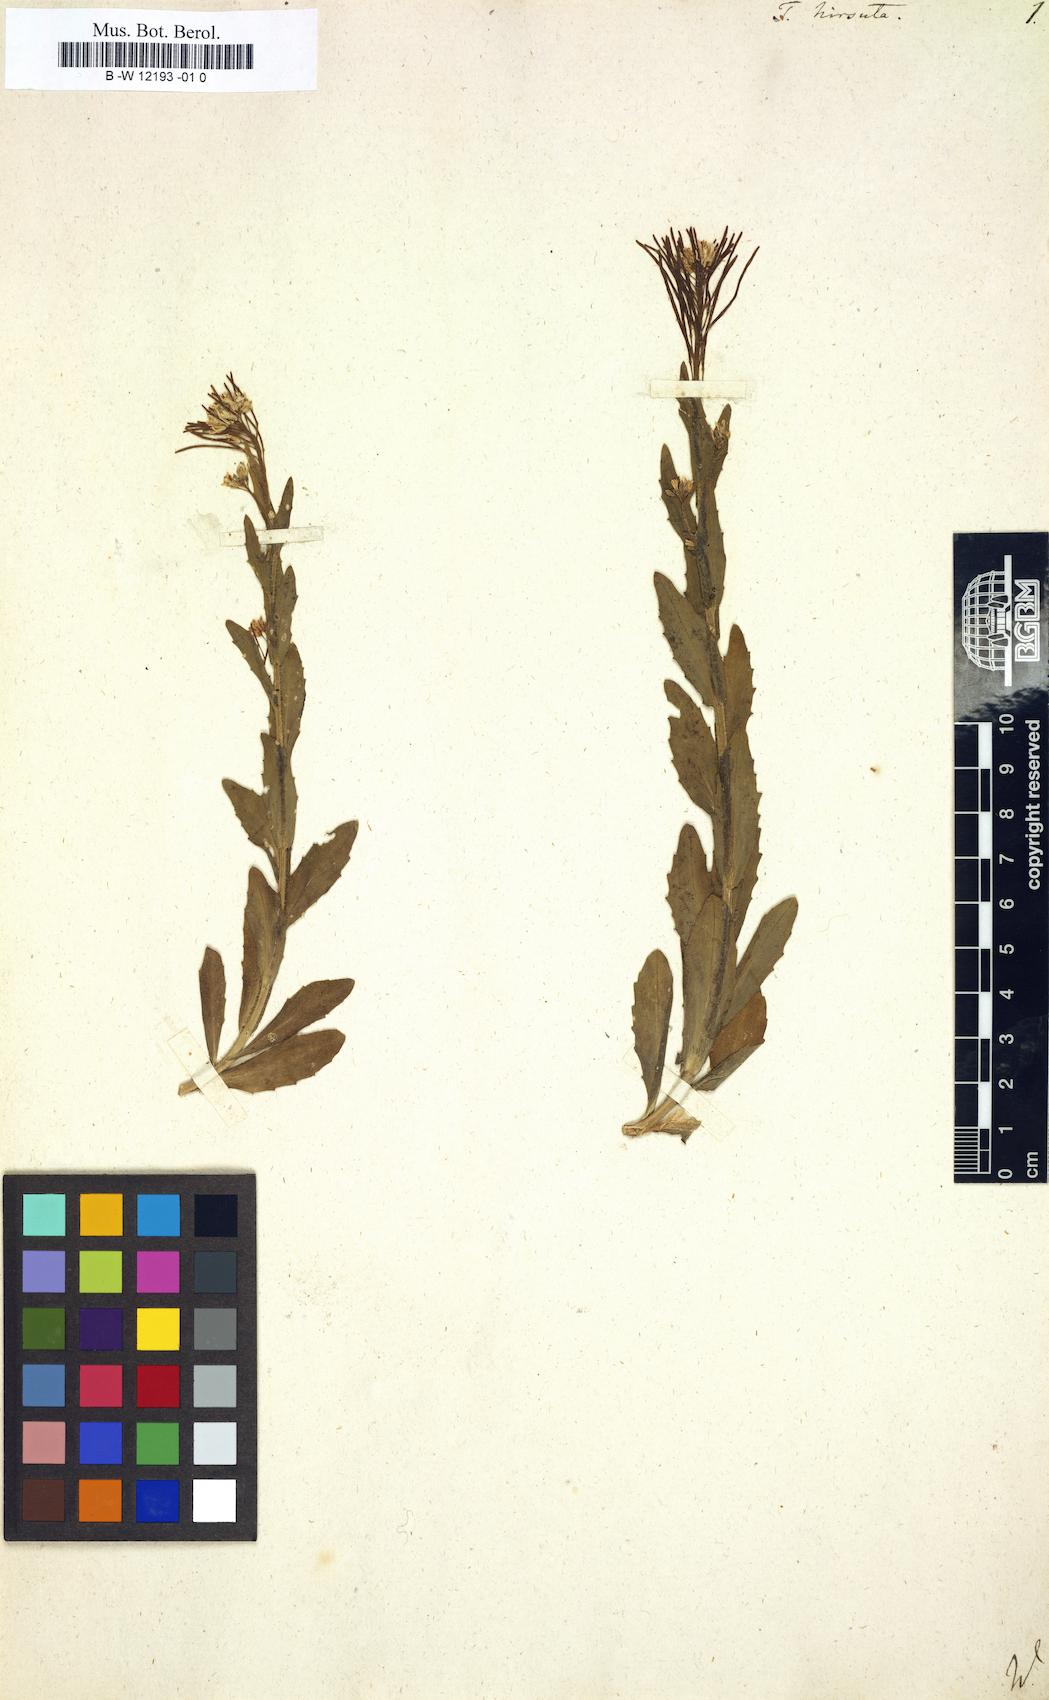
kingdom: Plantae
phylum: Tracheophyta
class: Magnoliopsida
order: Brassicales
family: Brassicaceae
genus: Turritis
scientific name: Turritis hirsuta
